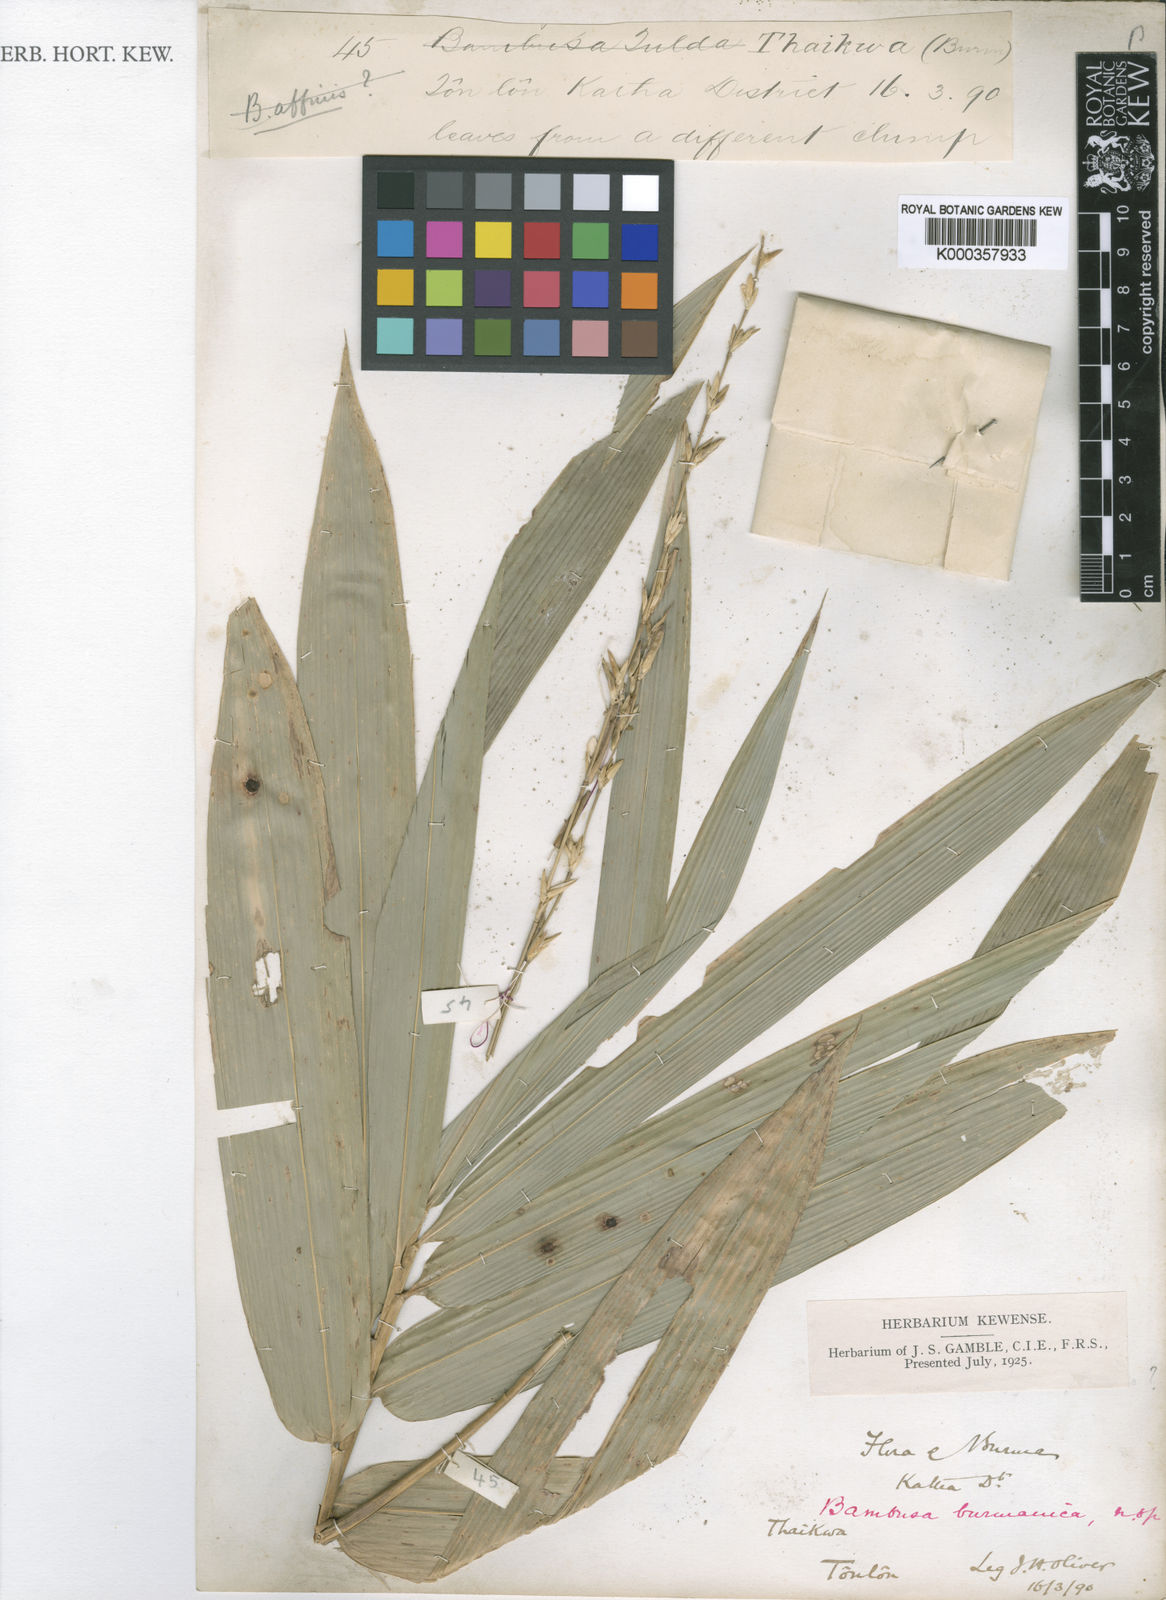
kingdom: Plantae
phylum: Tracheophyta
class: Liliopsida
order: Poales
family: Poaceae
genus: Bambusa
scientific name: Bambusa burmanica
